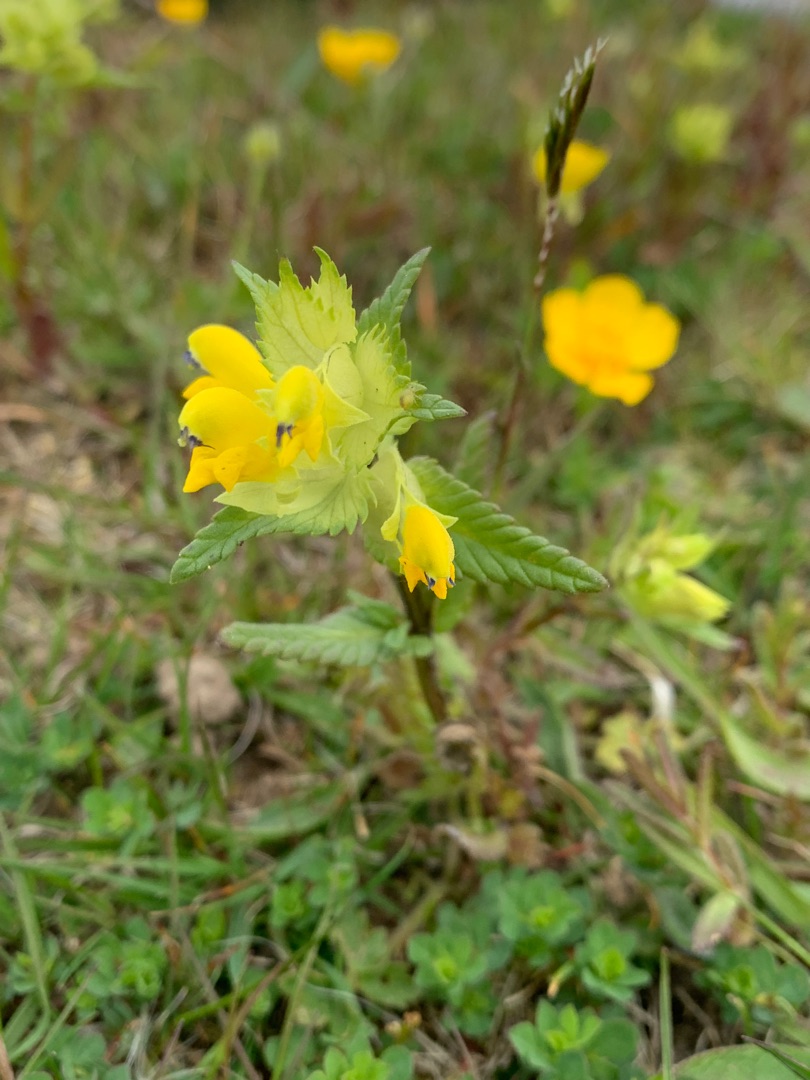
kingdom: Plantae
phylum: Tracheophyta
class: Magnoliopsida
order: Lamiales
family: Orobanchaceae
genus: Rhinanthus
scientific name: Rhinanthus
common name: Stor skjaller
